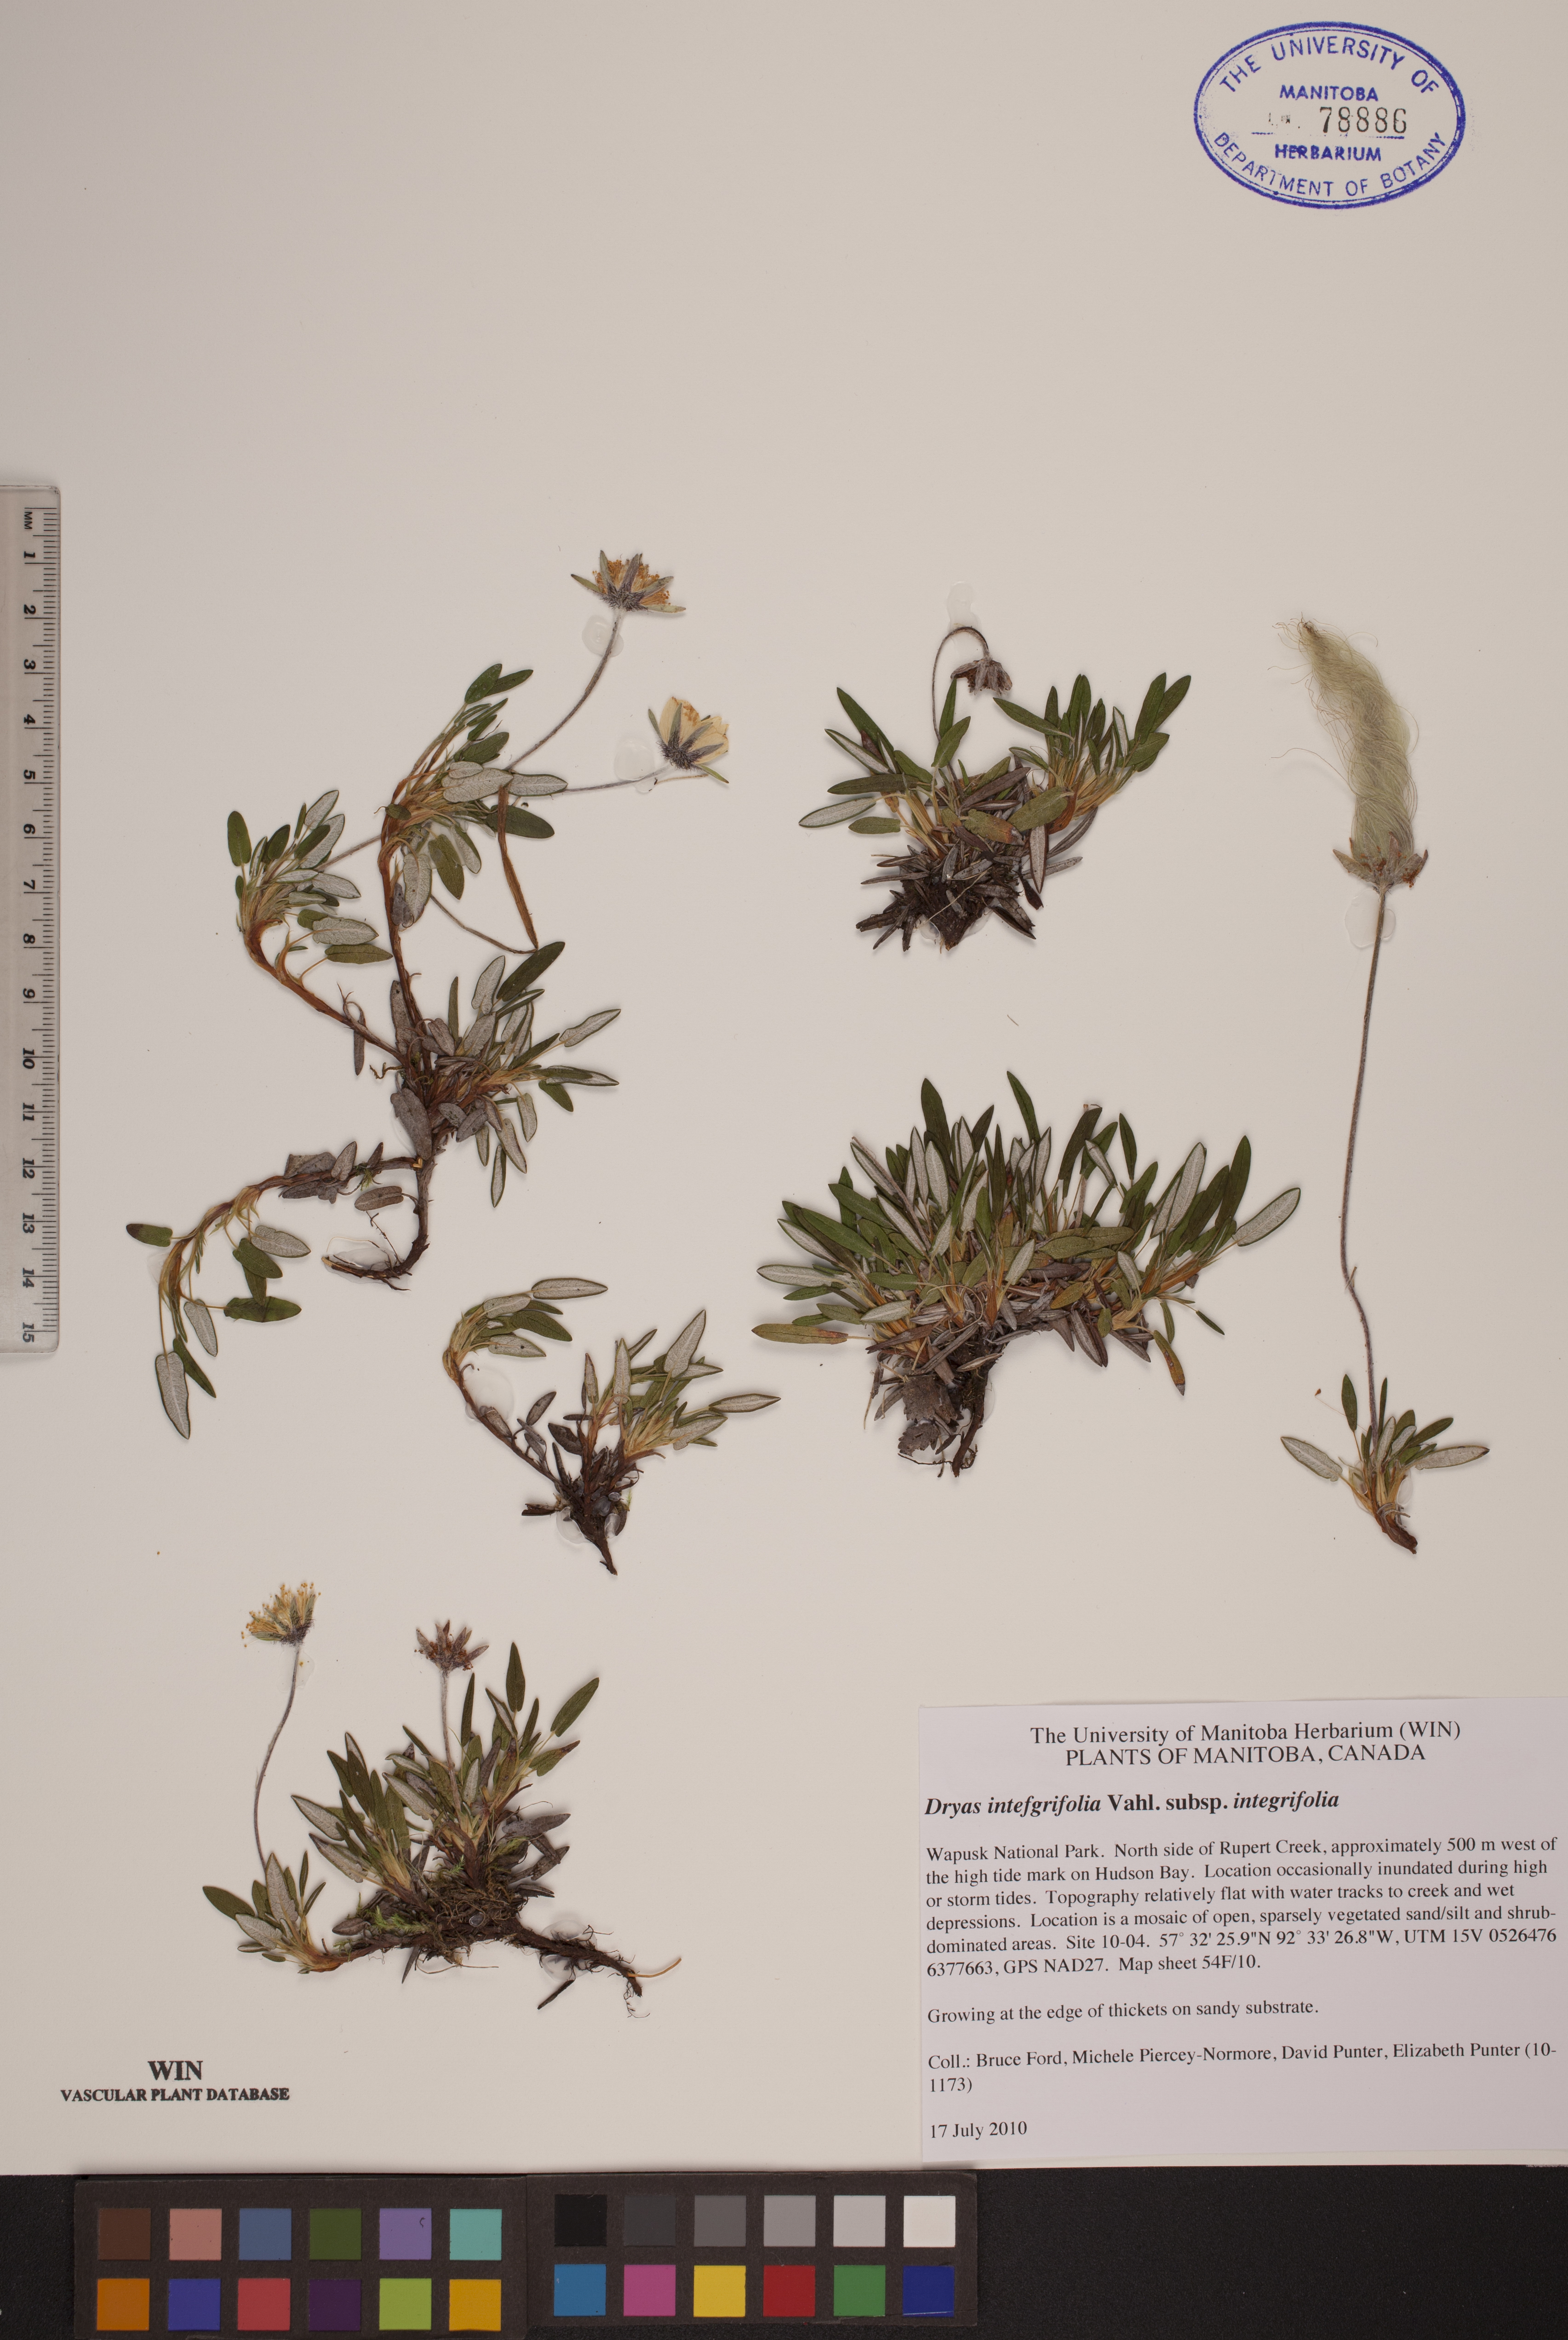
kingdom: Plantae
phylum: Tracheophyta
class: Magnoliopsida
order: Rosales
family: Rosaceae
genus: Dryas
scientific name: Dryas integrifolia
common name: Entire-leaved mountain avens
